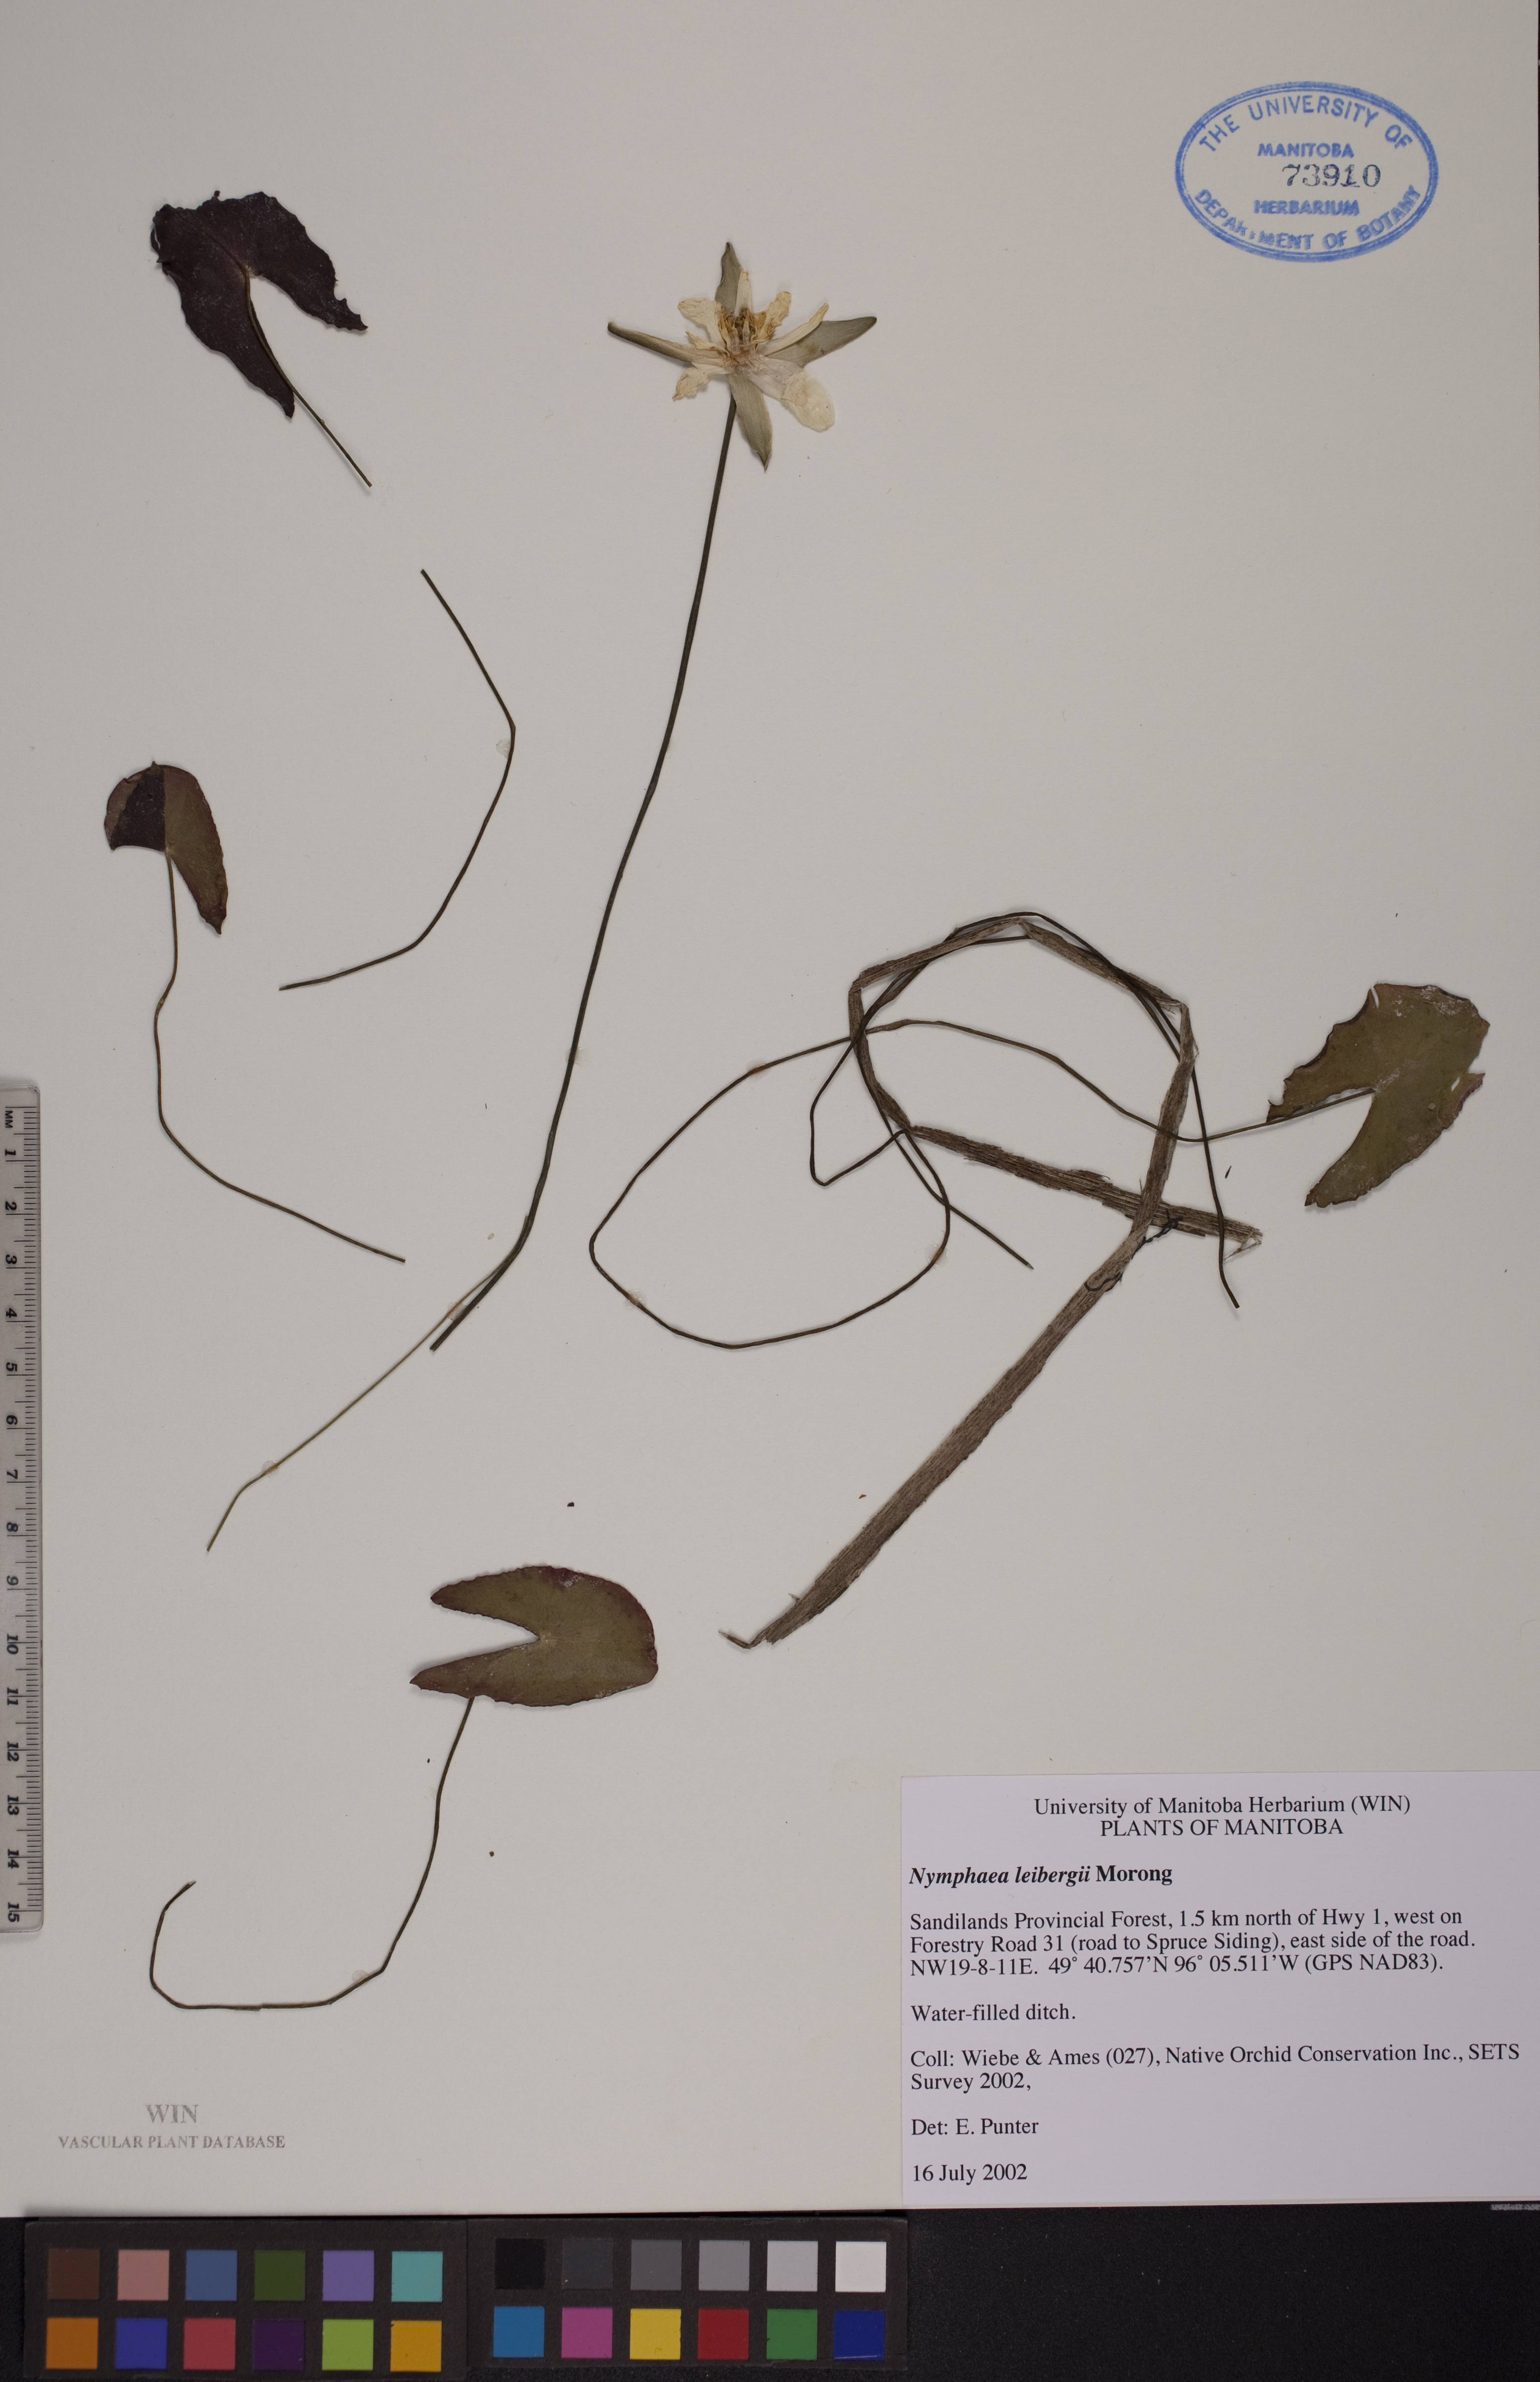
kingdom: Plantae
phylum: Tracheophyta
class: Magnoliopsida
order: Nymphaeales
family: Nymphaeaceae
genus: Nymphaea
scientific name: Nymphaea leibergii
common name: Dwarf water-lily
